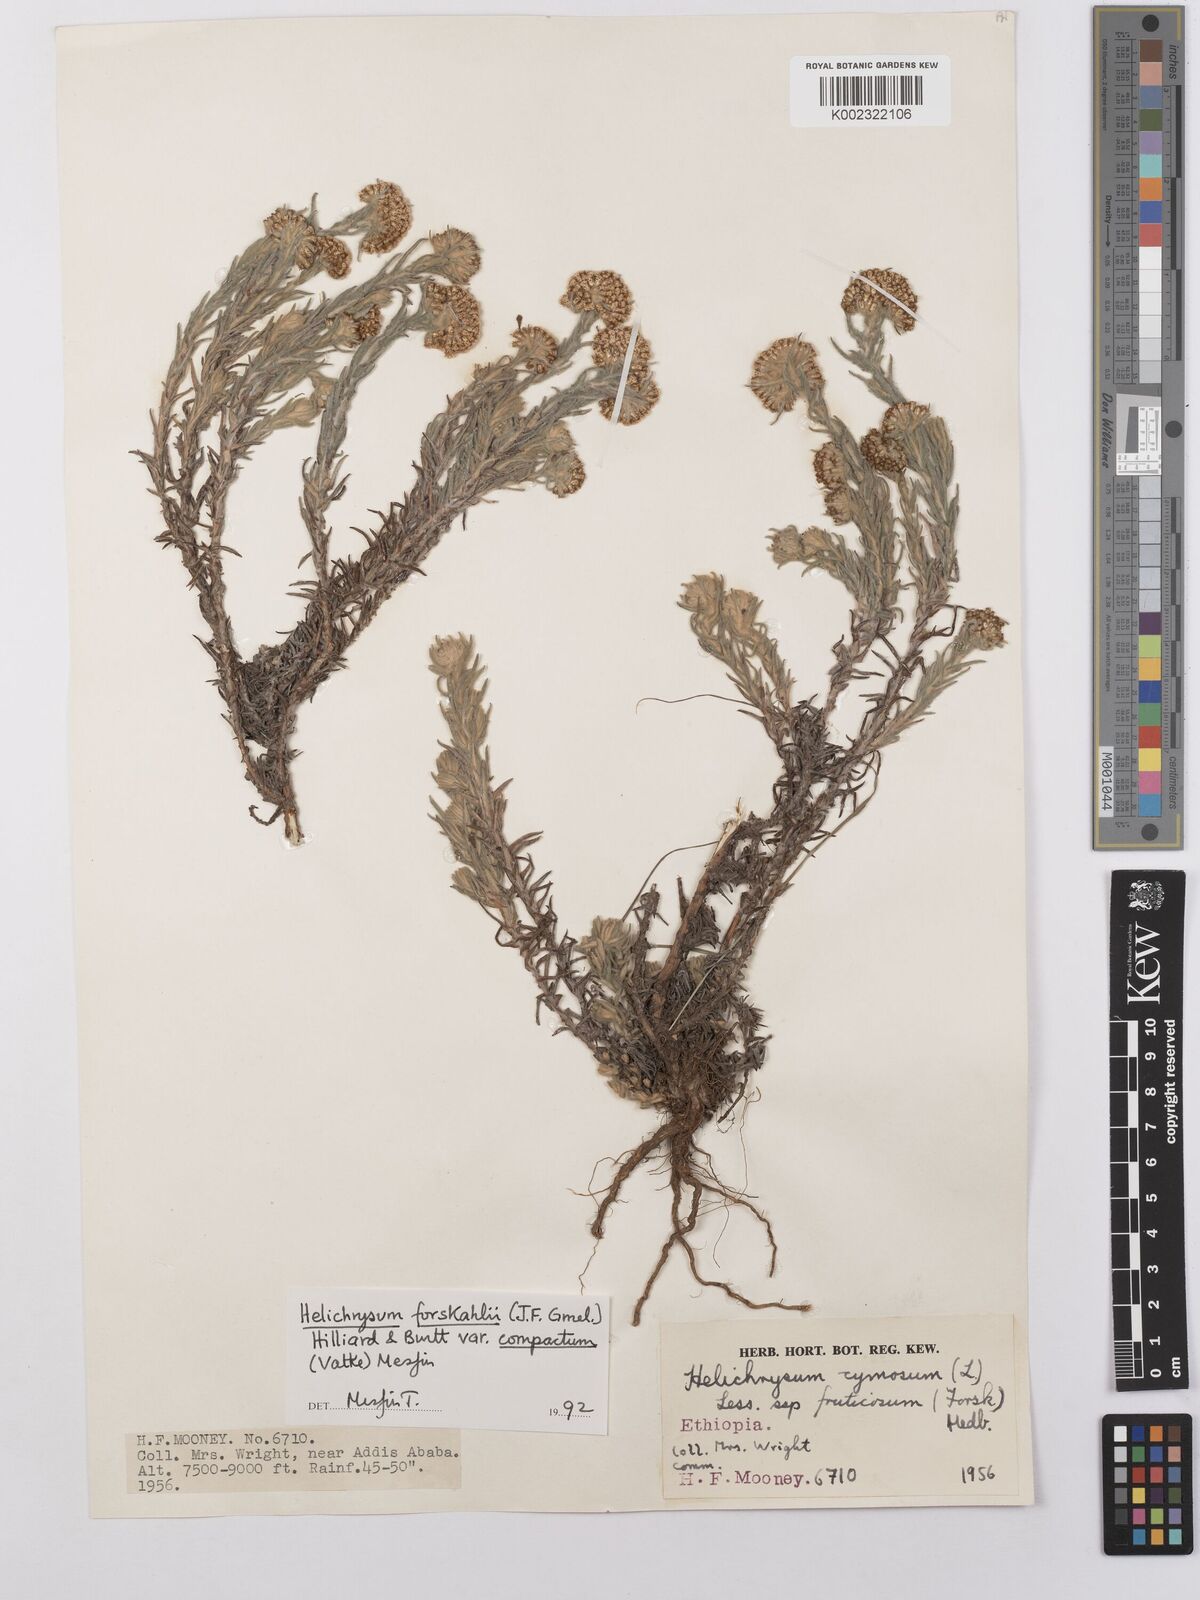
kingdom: Plantae
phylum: Tracheophyta
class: Magnoliopsida
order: Asterales
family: Asteraceae
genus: Helichrysum
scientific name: Helichrysum forskahlii
